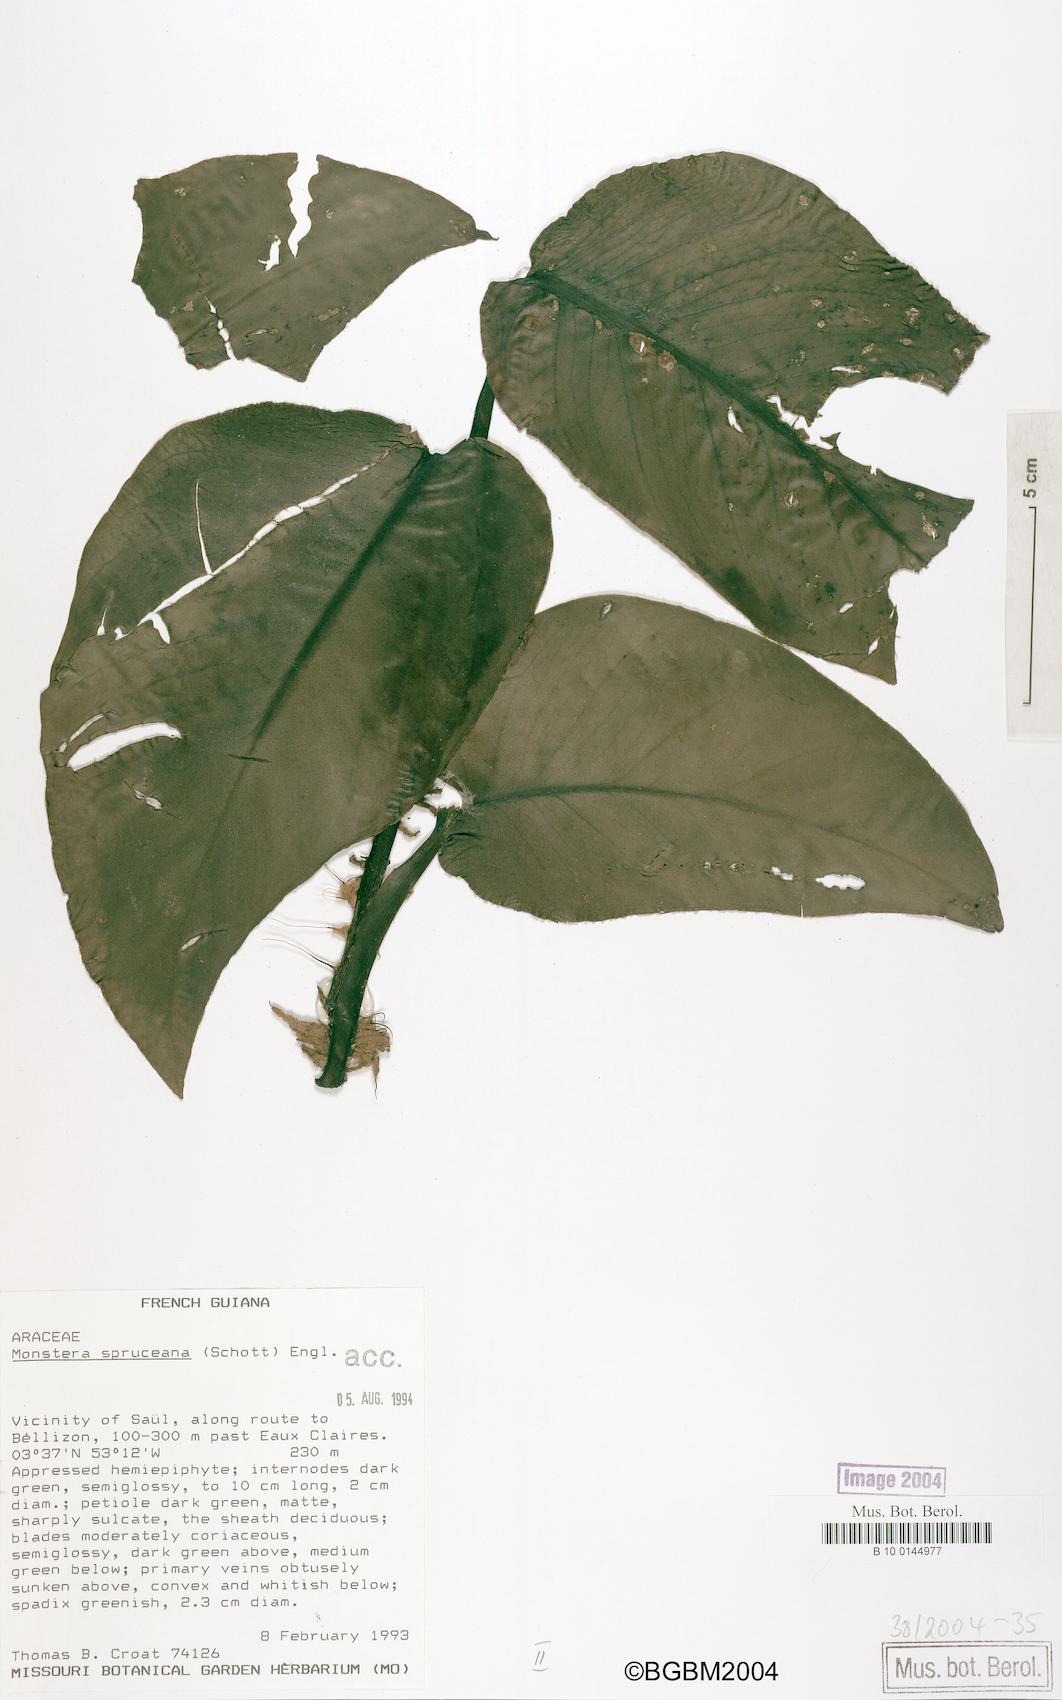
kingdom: Plantae
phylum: Tracheophyta
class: Liliopsida
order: Alismatales
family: Araceae
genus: Monstera
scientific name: Monstera spruceana
